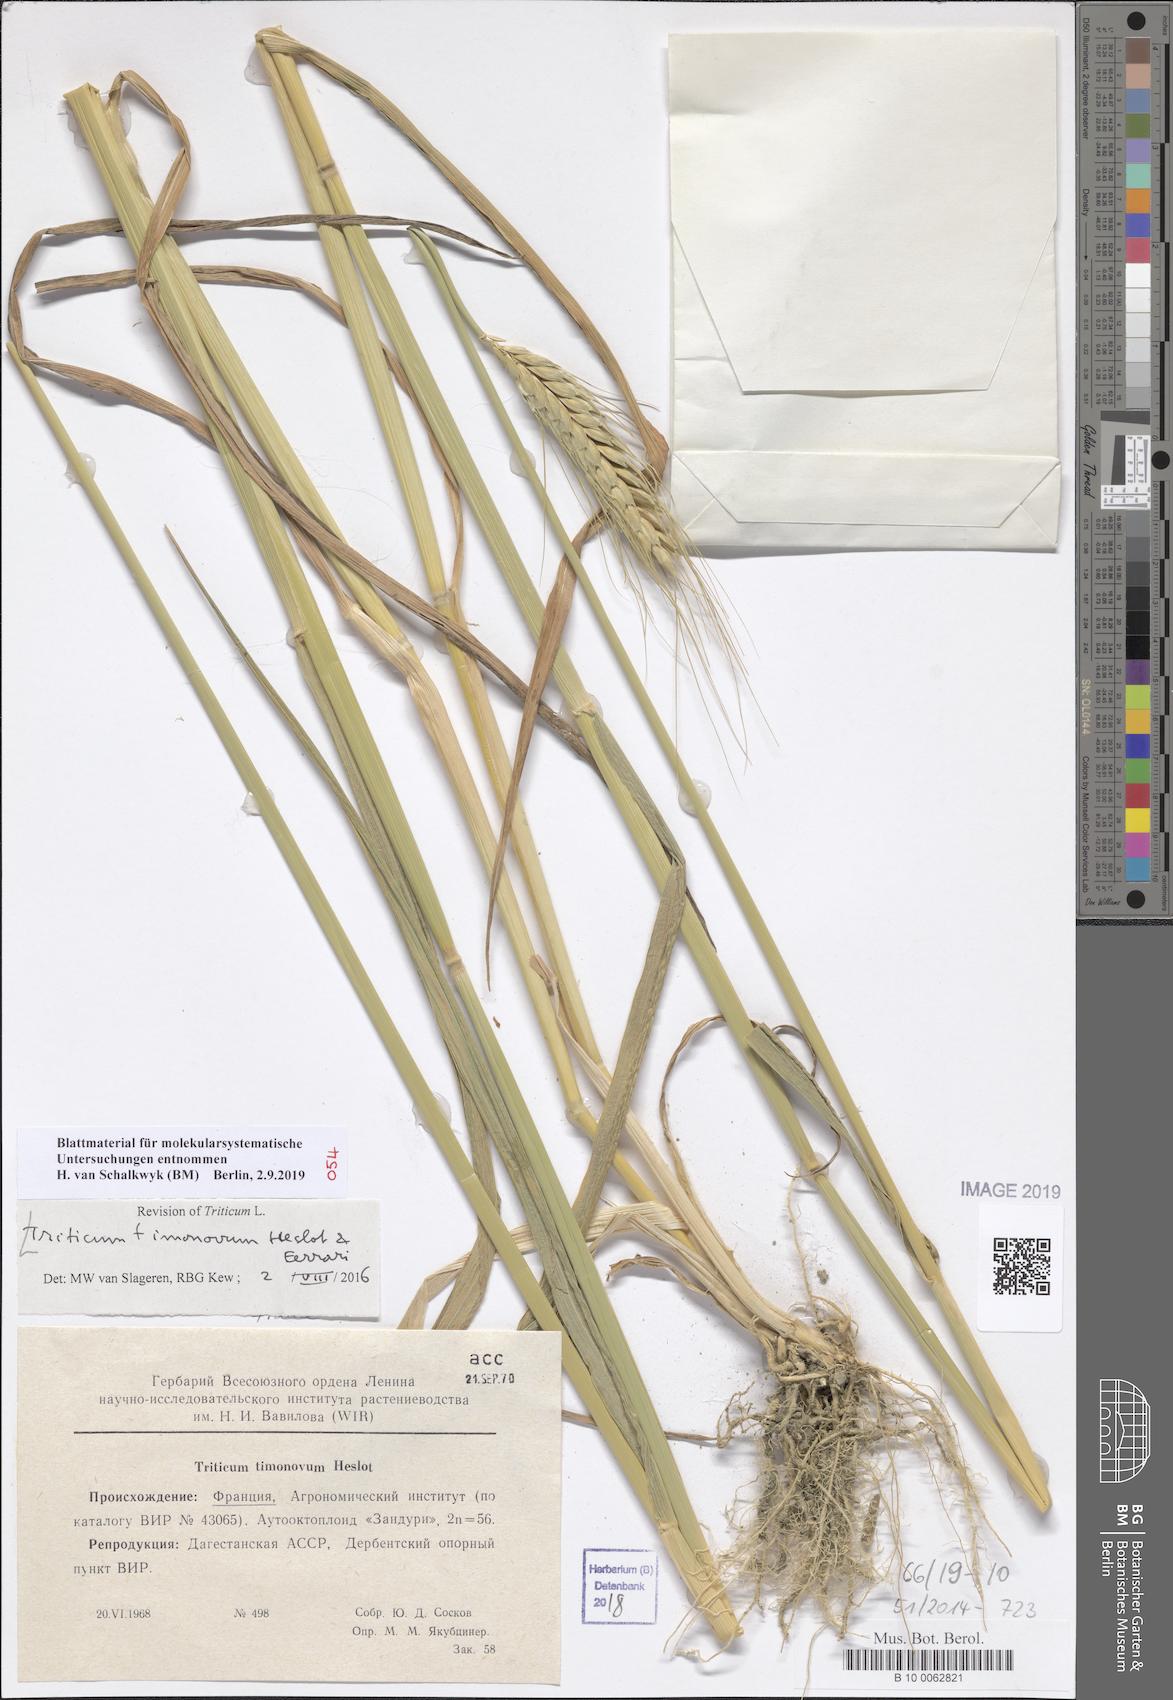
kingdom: Plantae
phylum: Tracheophyta
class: Liliopsida
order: Poales
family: Poaceae
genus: Triticum
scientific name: Triticum timopheevii
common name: Timopheev's wheat
